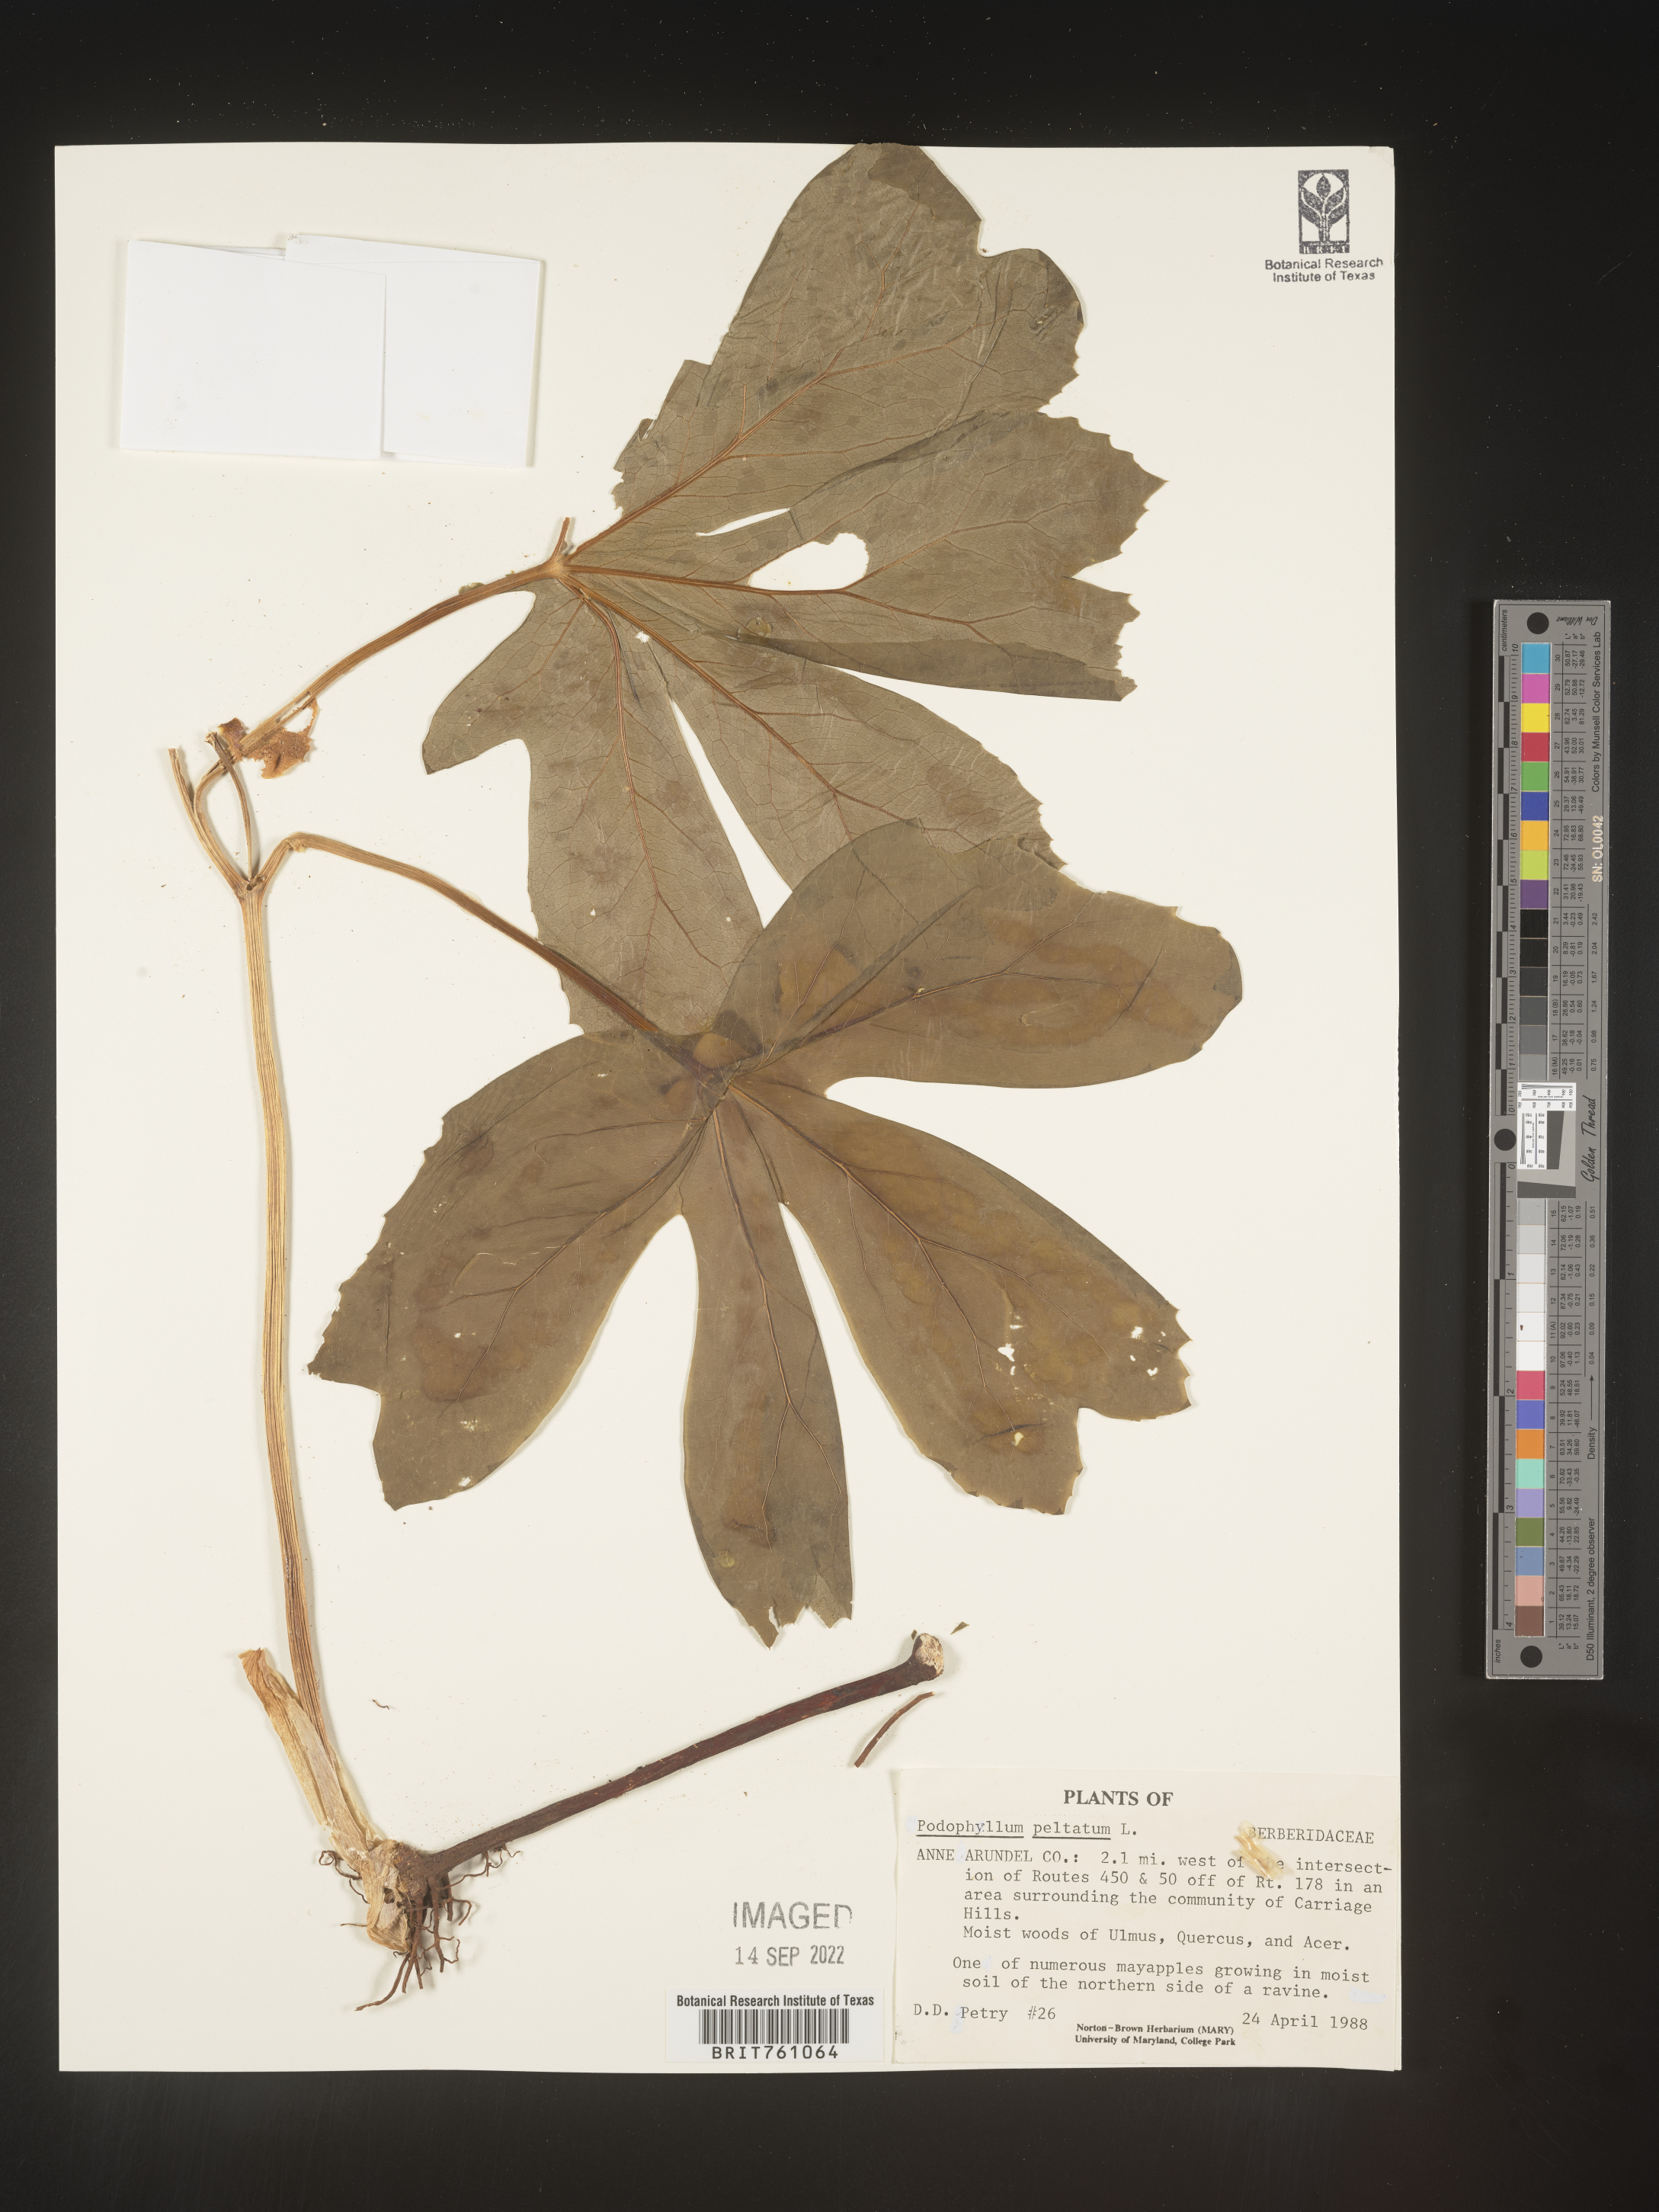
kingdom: Plantae
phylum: Tracheophyta
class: Magnoliopsida
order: Ranunculales
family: Berberidaceae
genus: Podophyllum
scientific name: Podophyllum peltatum
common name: Wild mandrake
